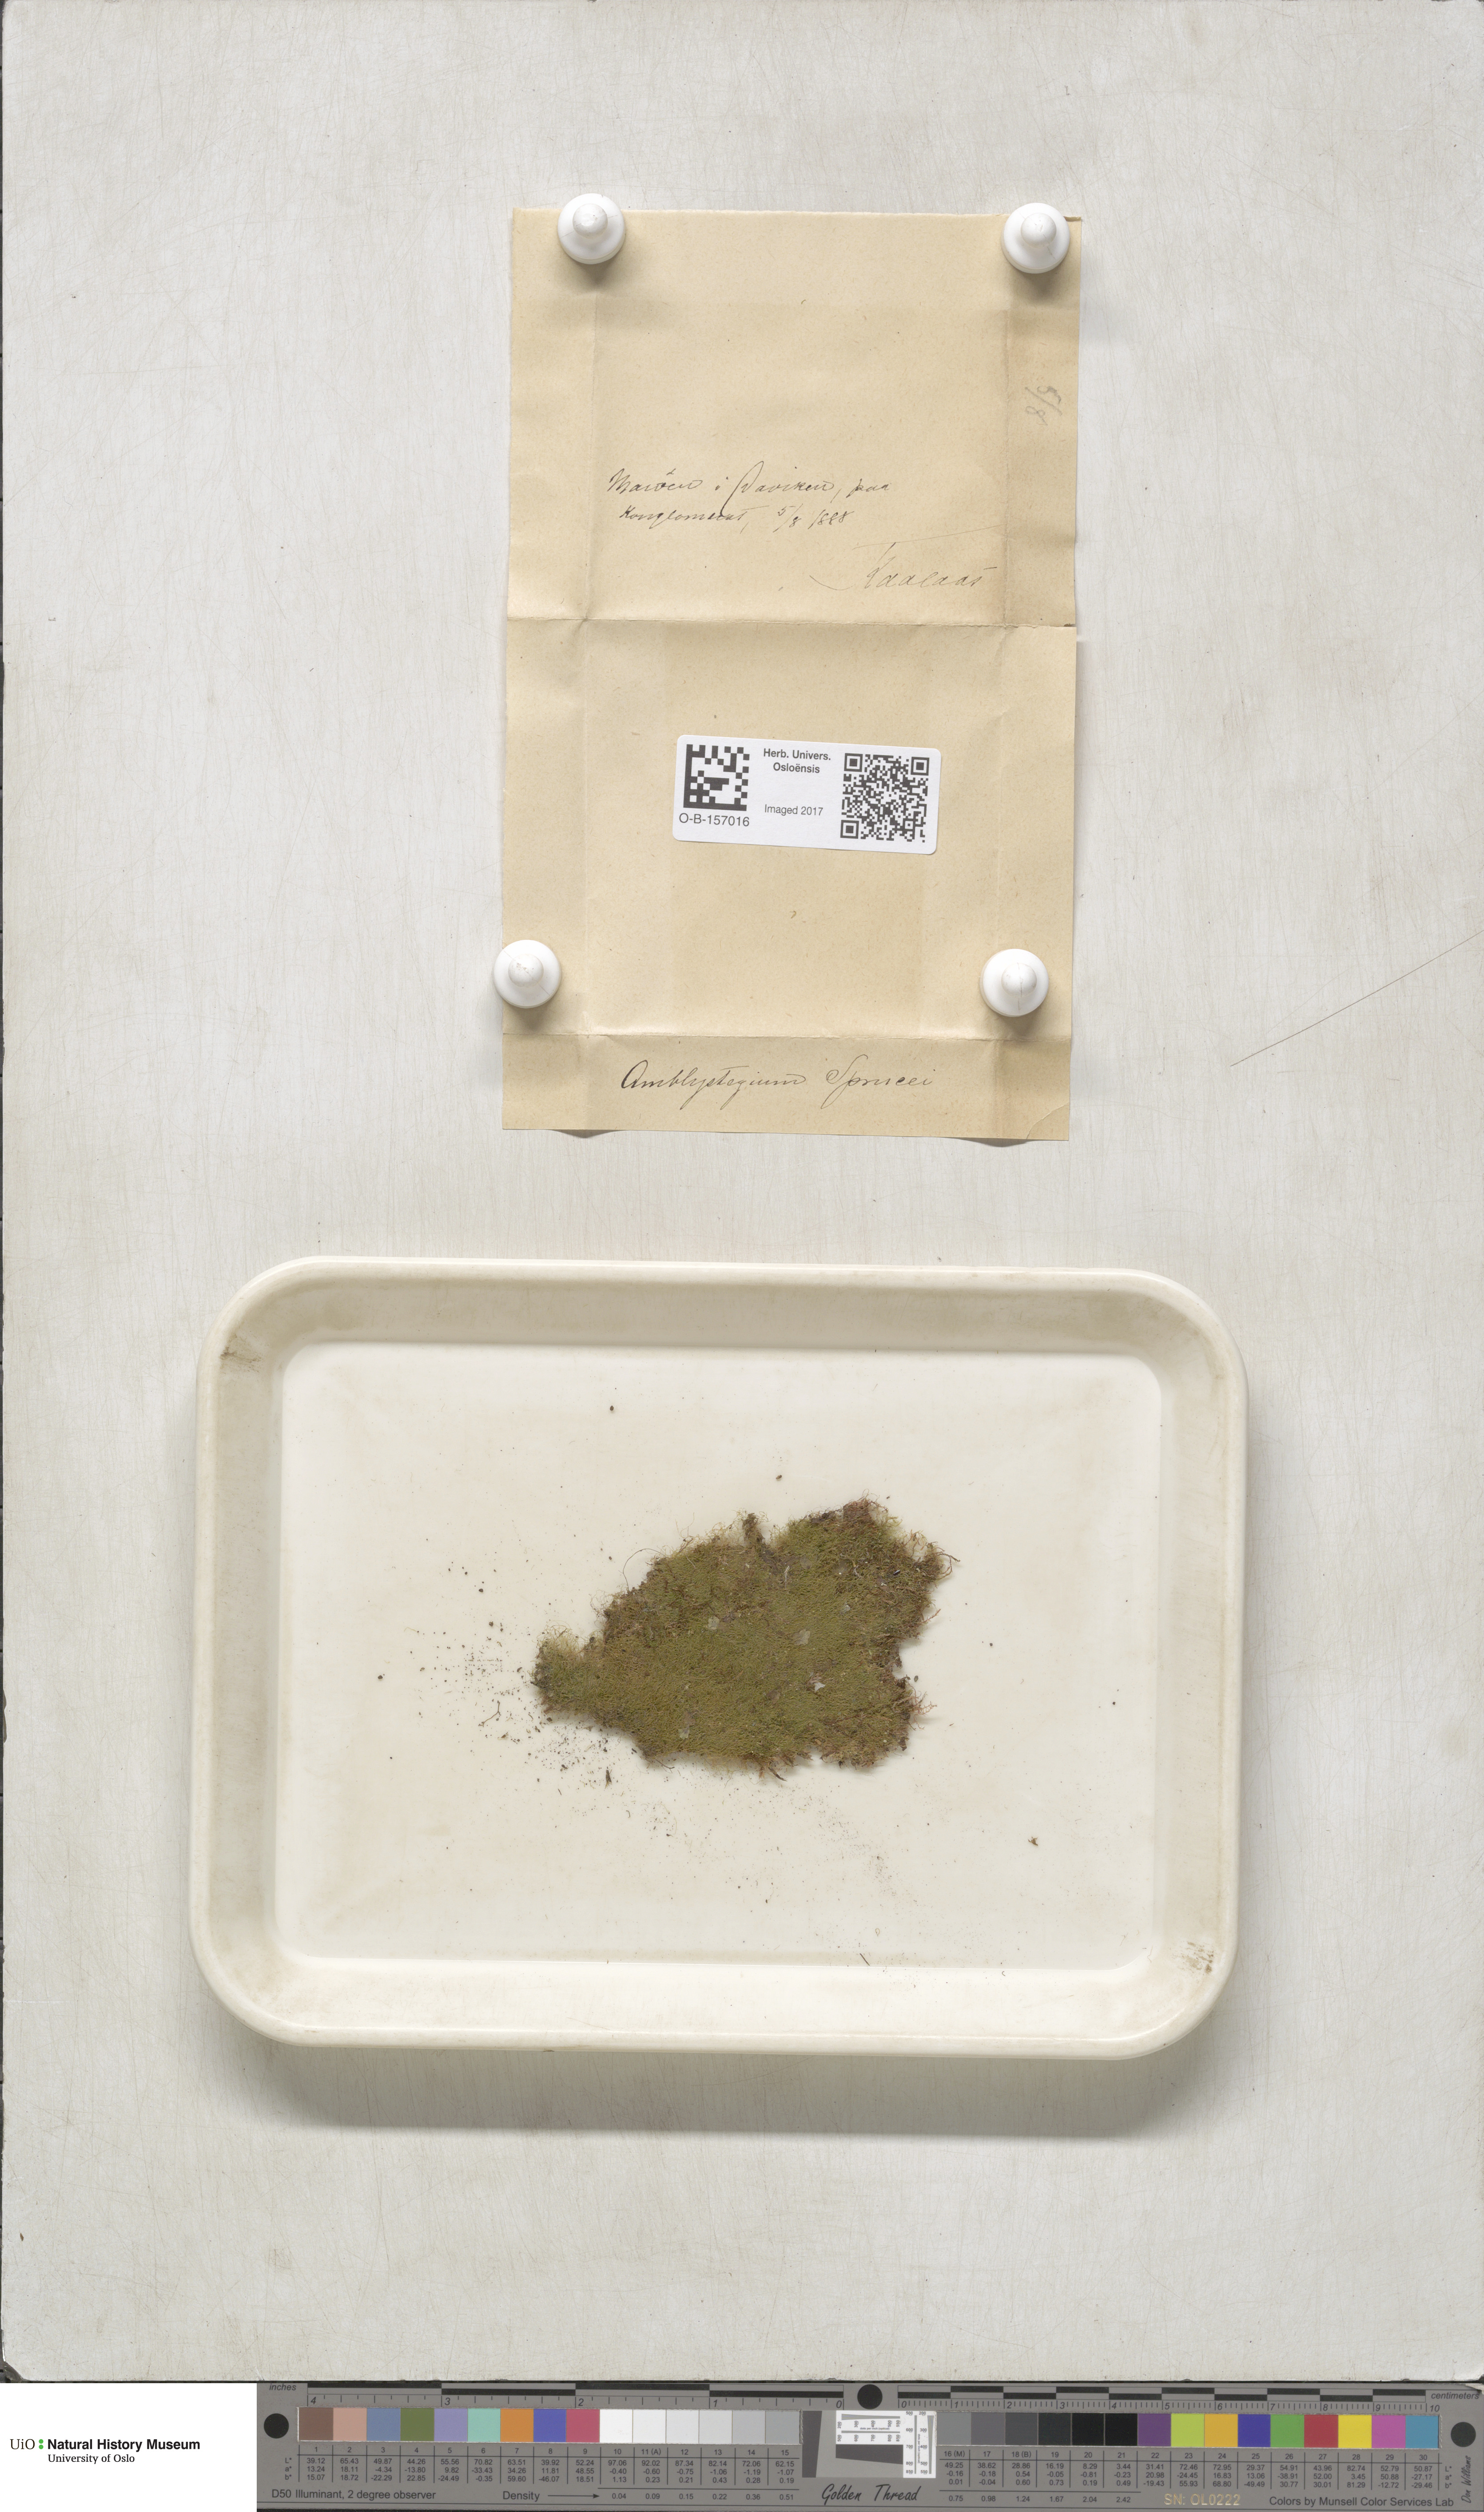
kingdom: Plantae
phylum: Bryophyta
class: Bryopsida
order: Hypnales
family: Plagiotheciaceae
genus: Platydictya
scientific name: Platydictya jungermannioides
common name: False willow moss
